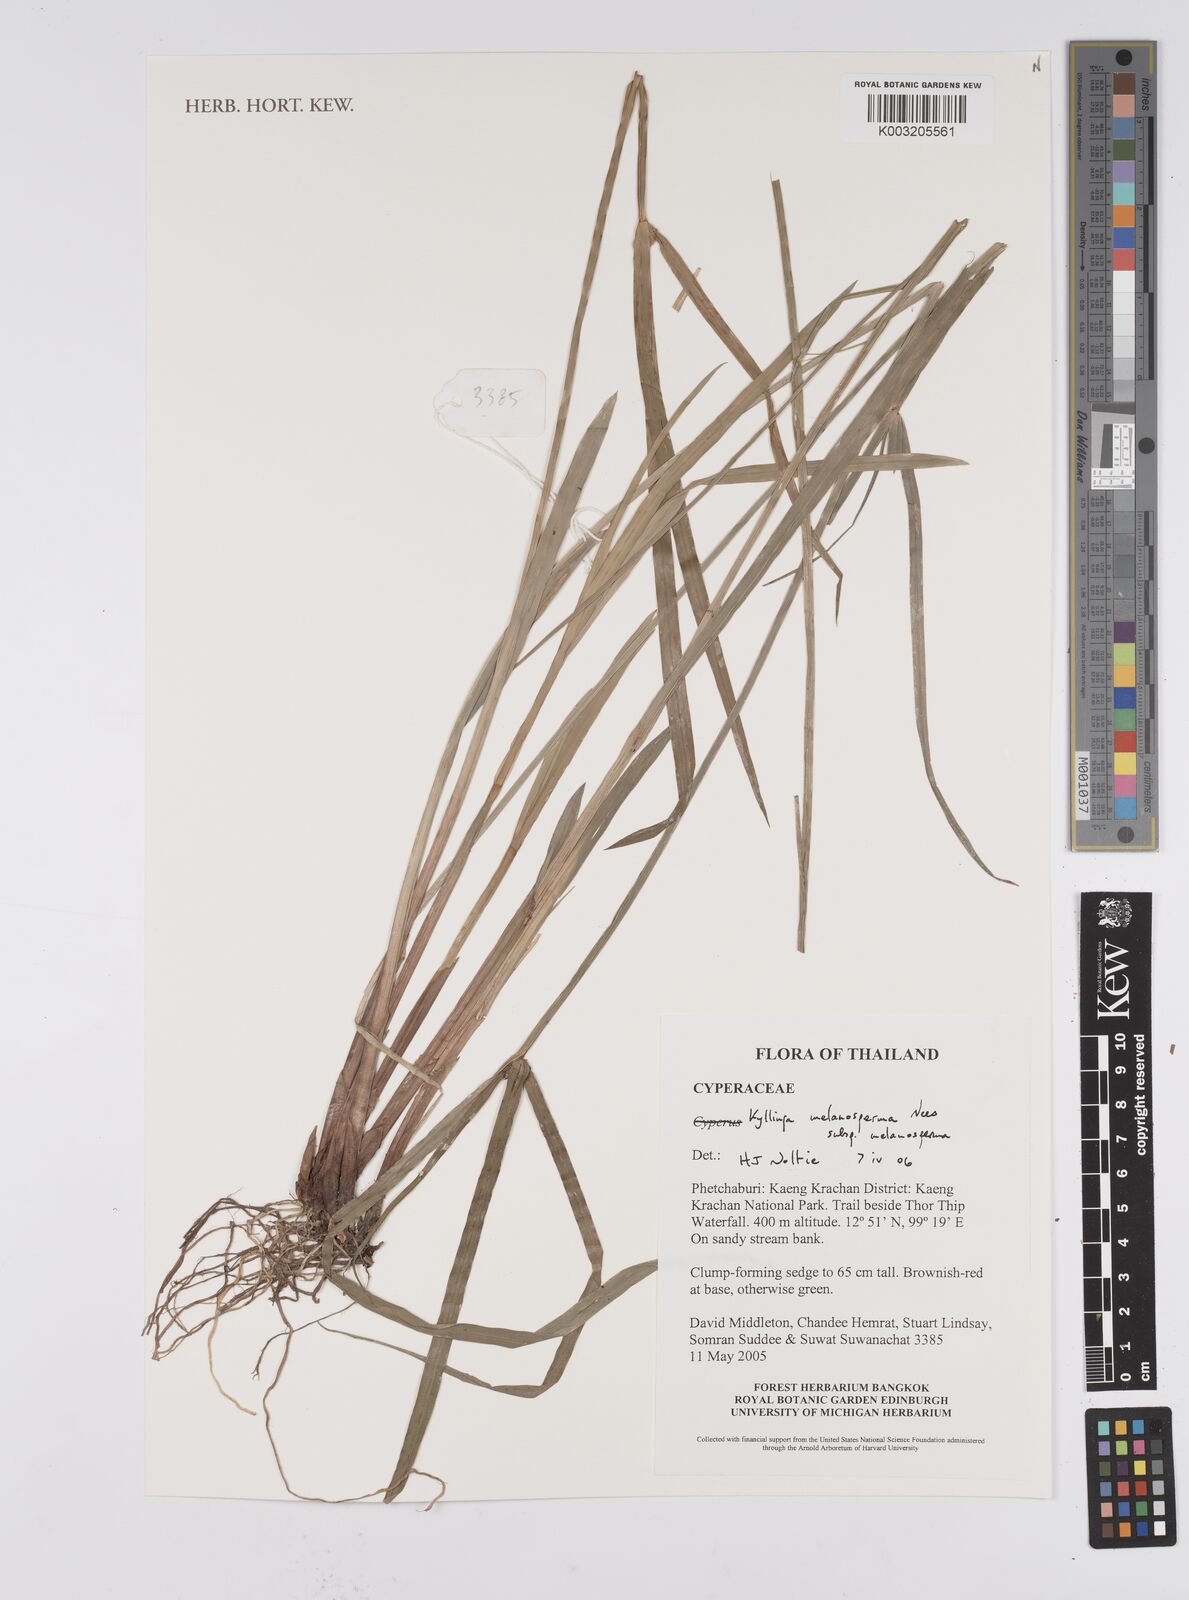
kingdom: Plantae
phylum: Tracheophyta
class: Liliopsida
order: Poales
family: Cyperaceae
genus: Cyperus
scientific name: Cyperus melanospermus
